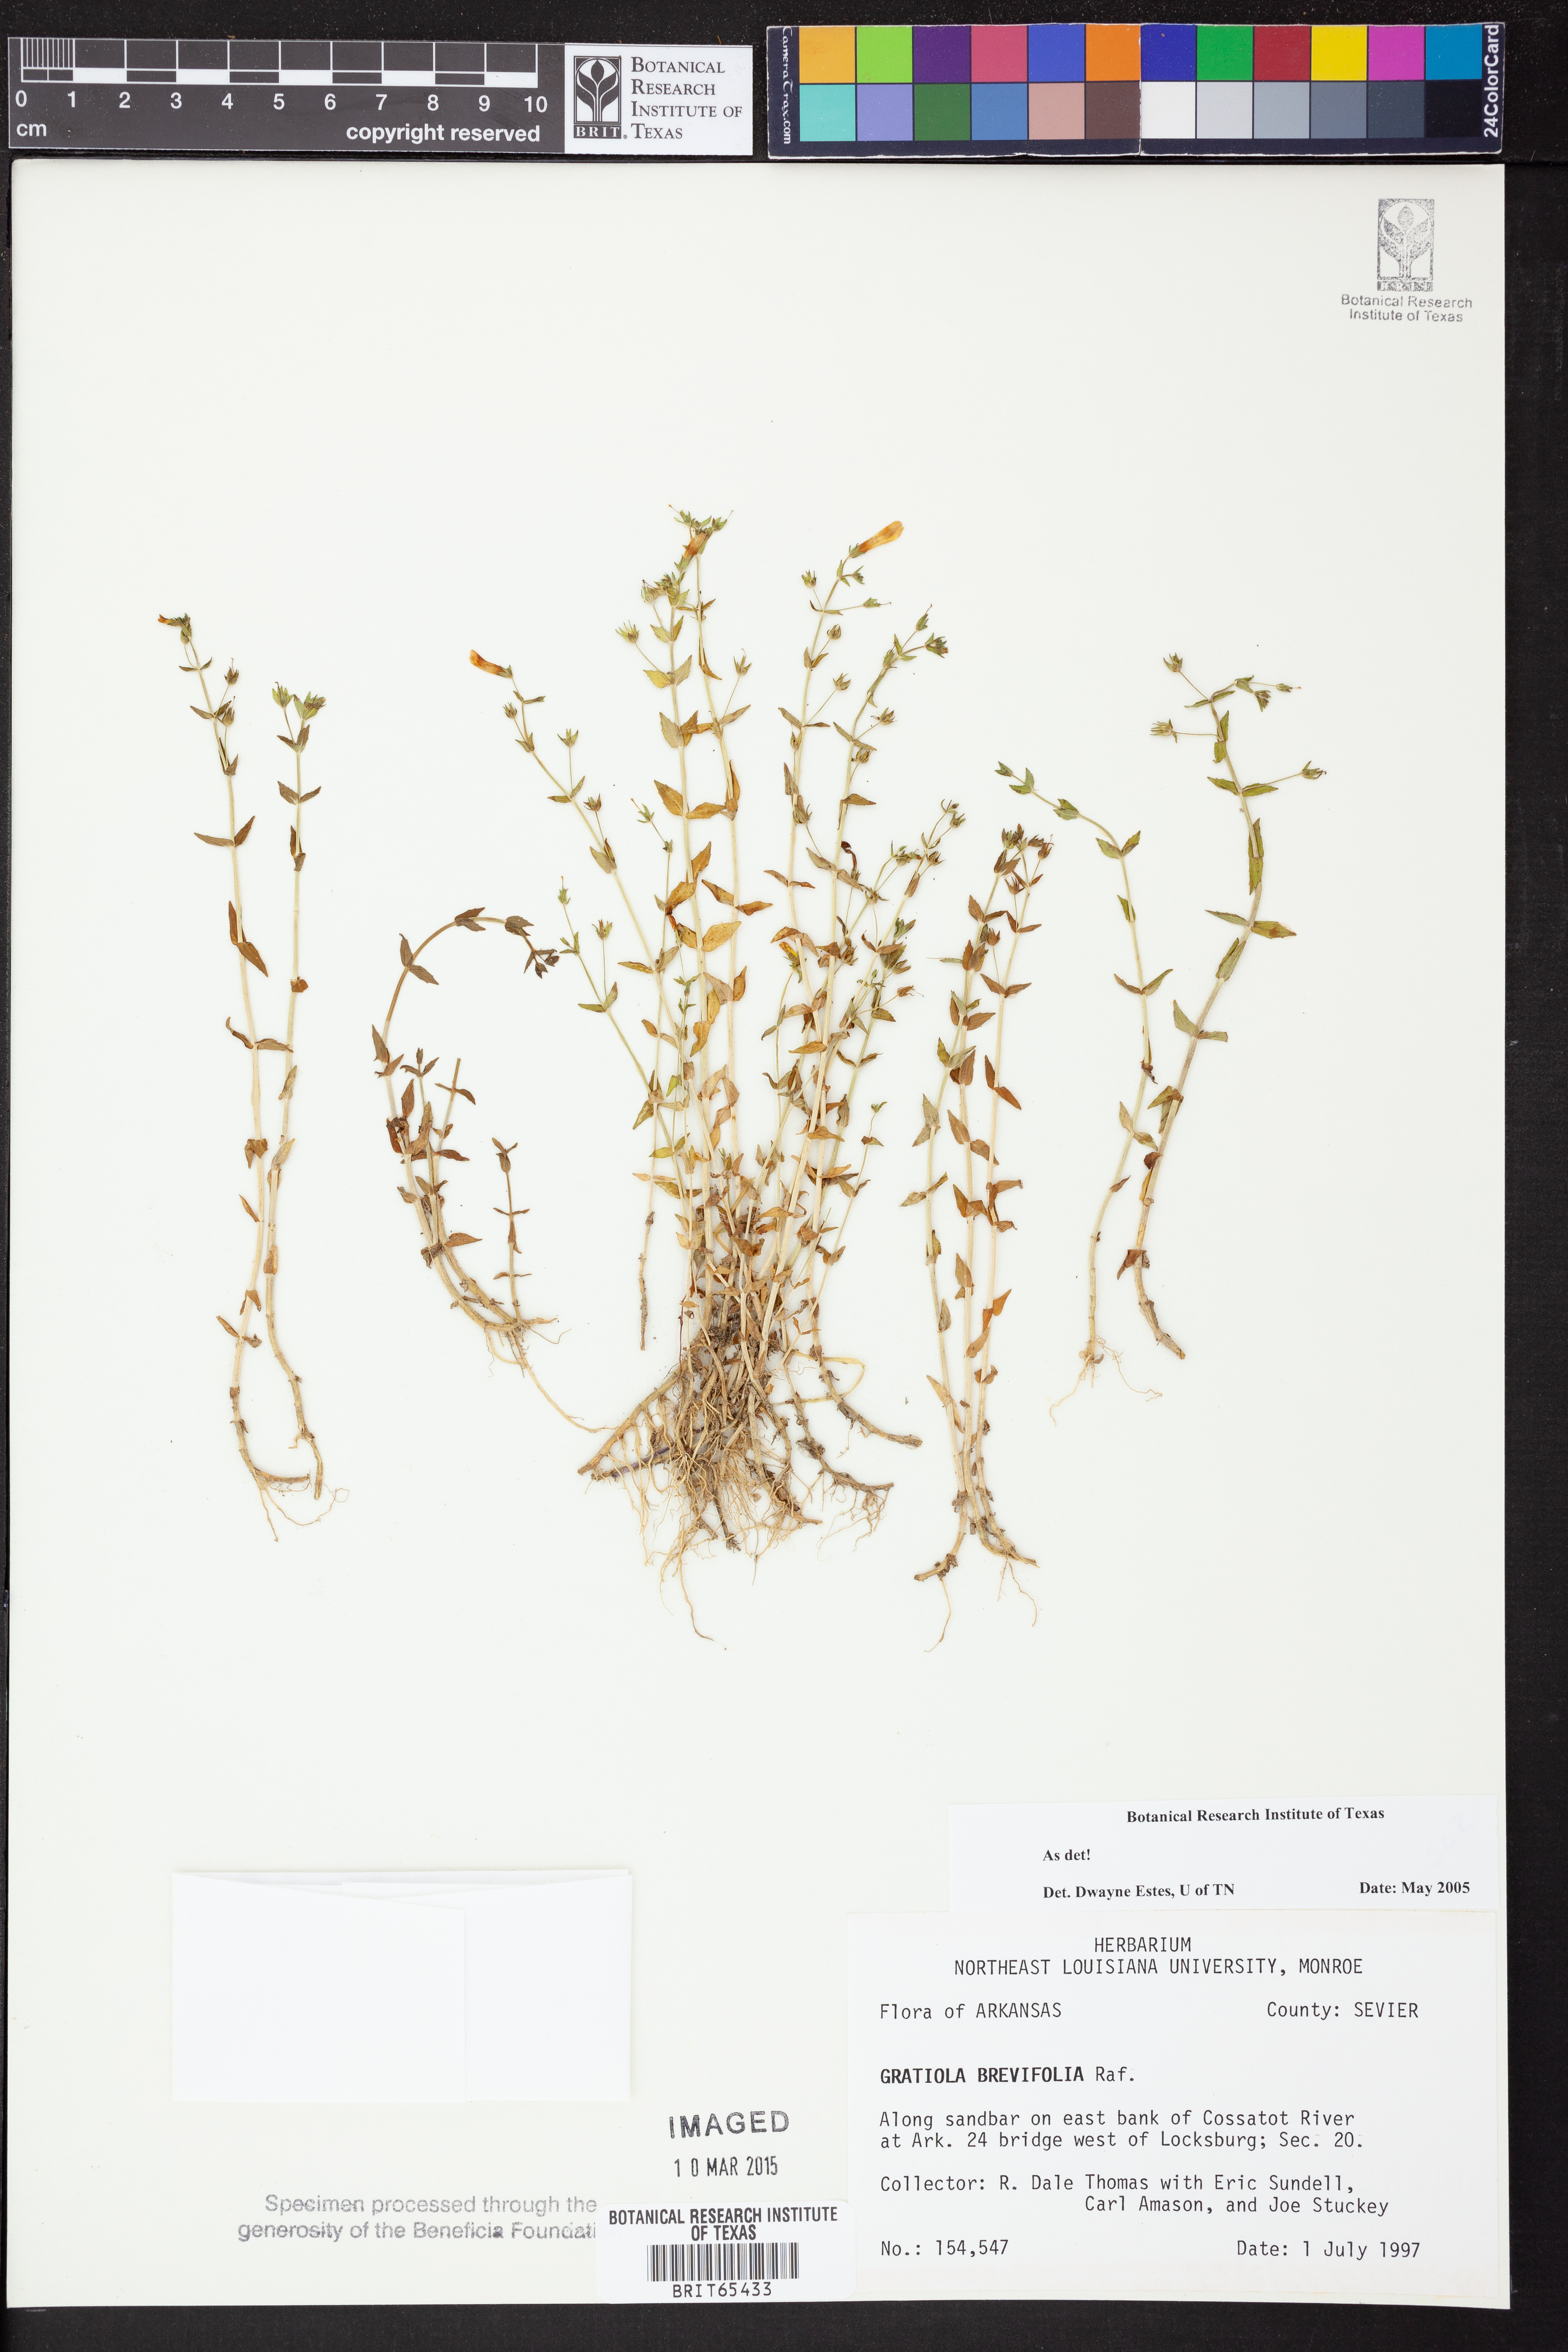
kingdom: Plantae
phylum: Tracheophyta
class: Magnoliopsida
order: Lamiales
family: Plantaginaceae
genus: Gratiola
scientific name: Gratiola brevifolia
